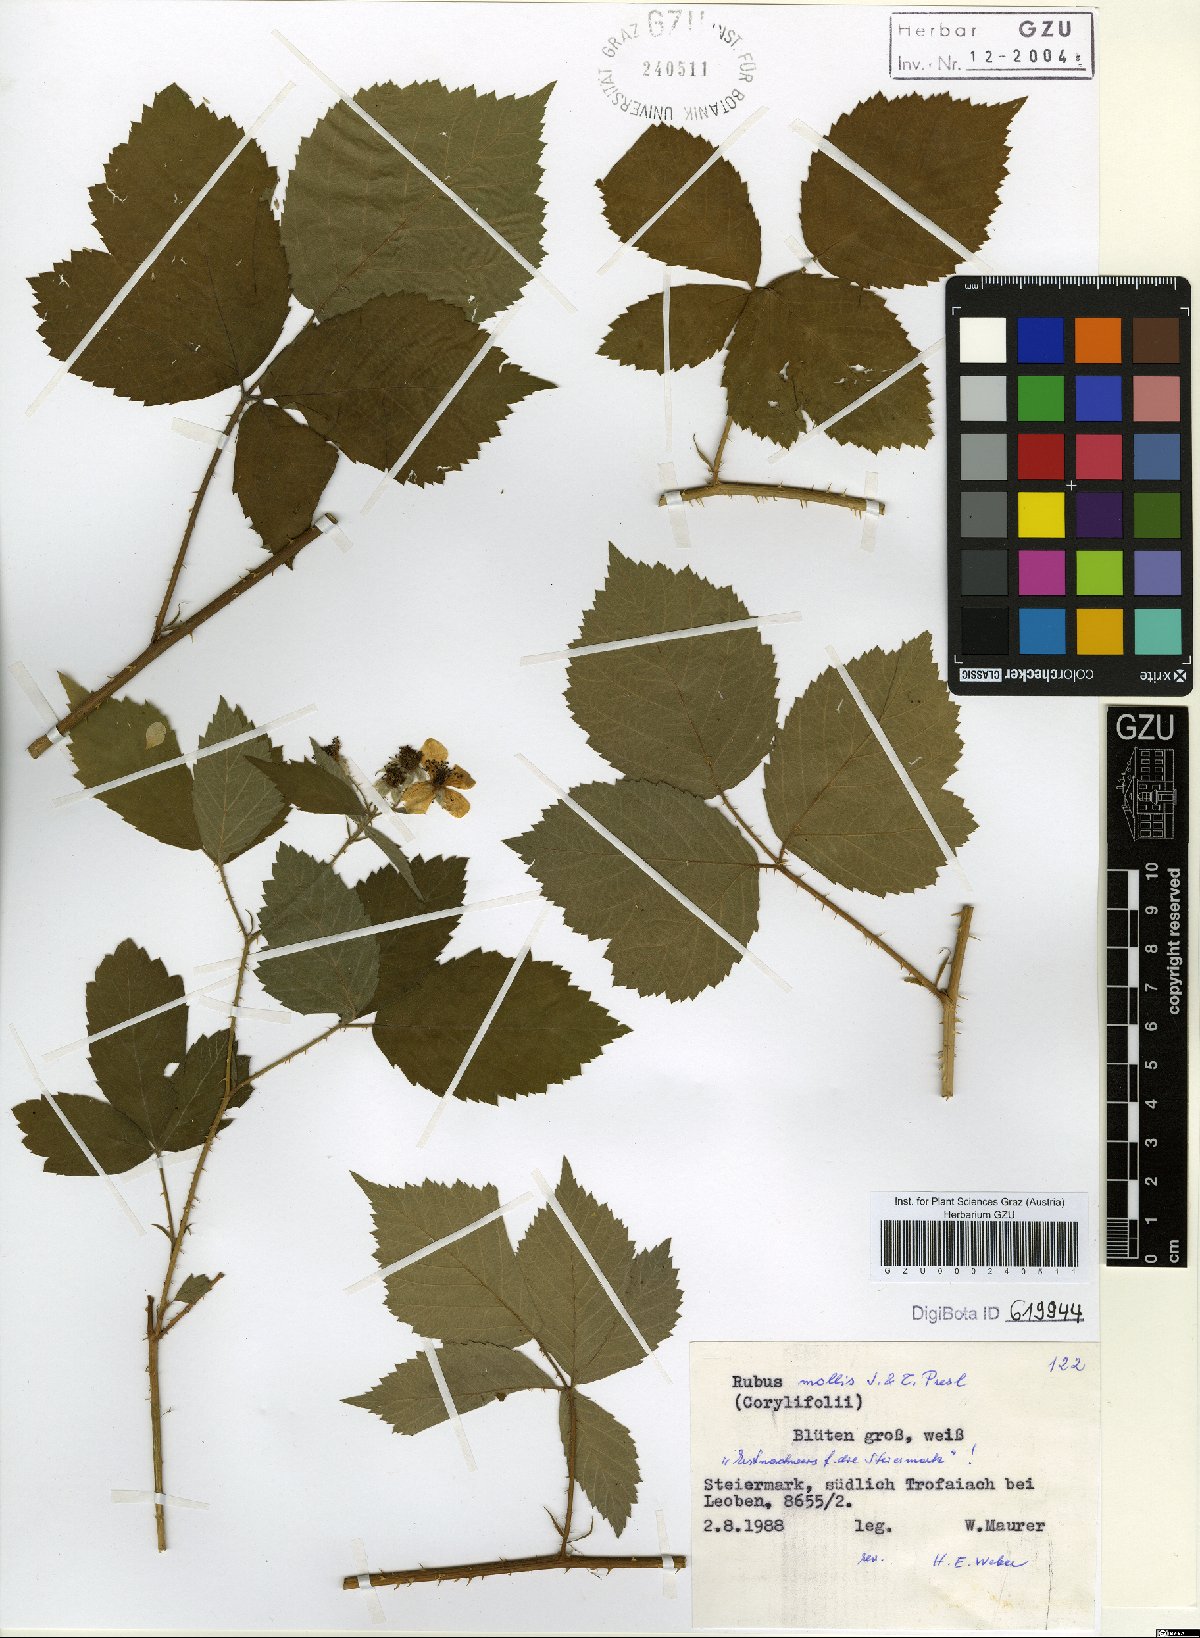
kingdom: Plantae
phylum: Tracheophyta
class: Magnoliopsida
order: Rosales
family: Rosaceae
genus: Rubus
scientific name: Rubus mollis
